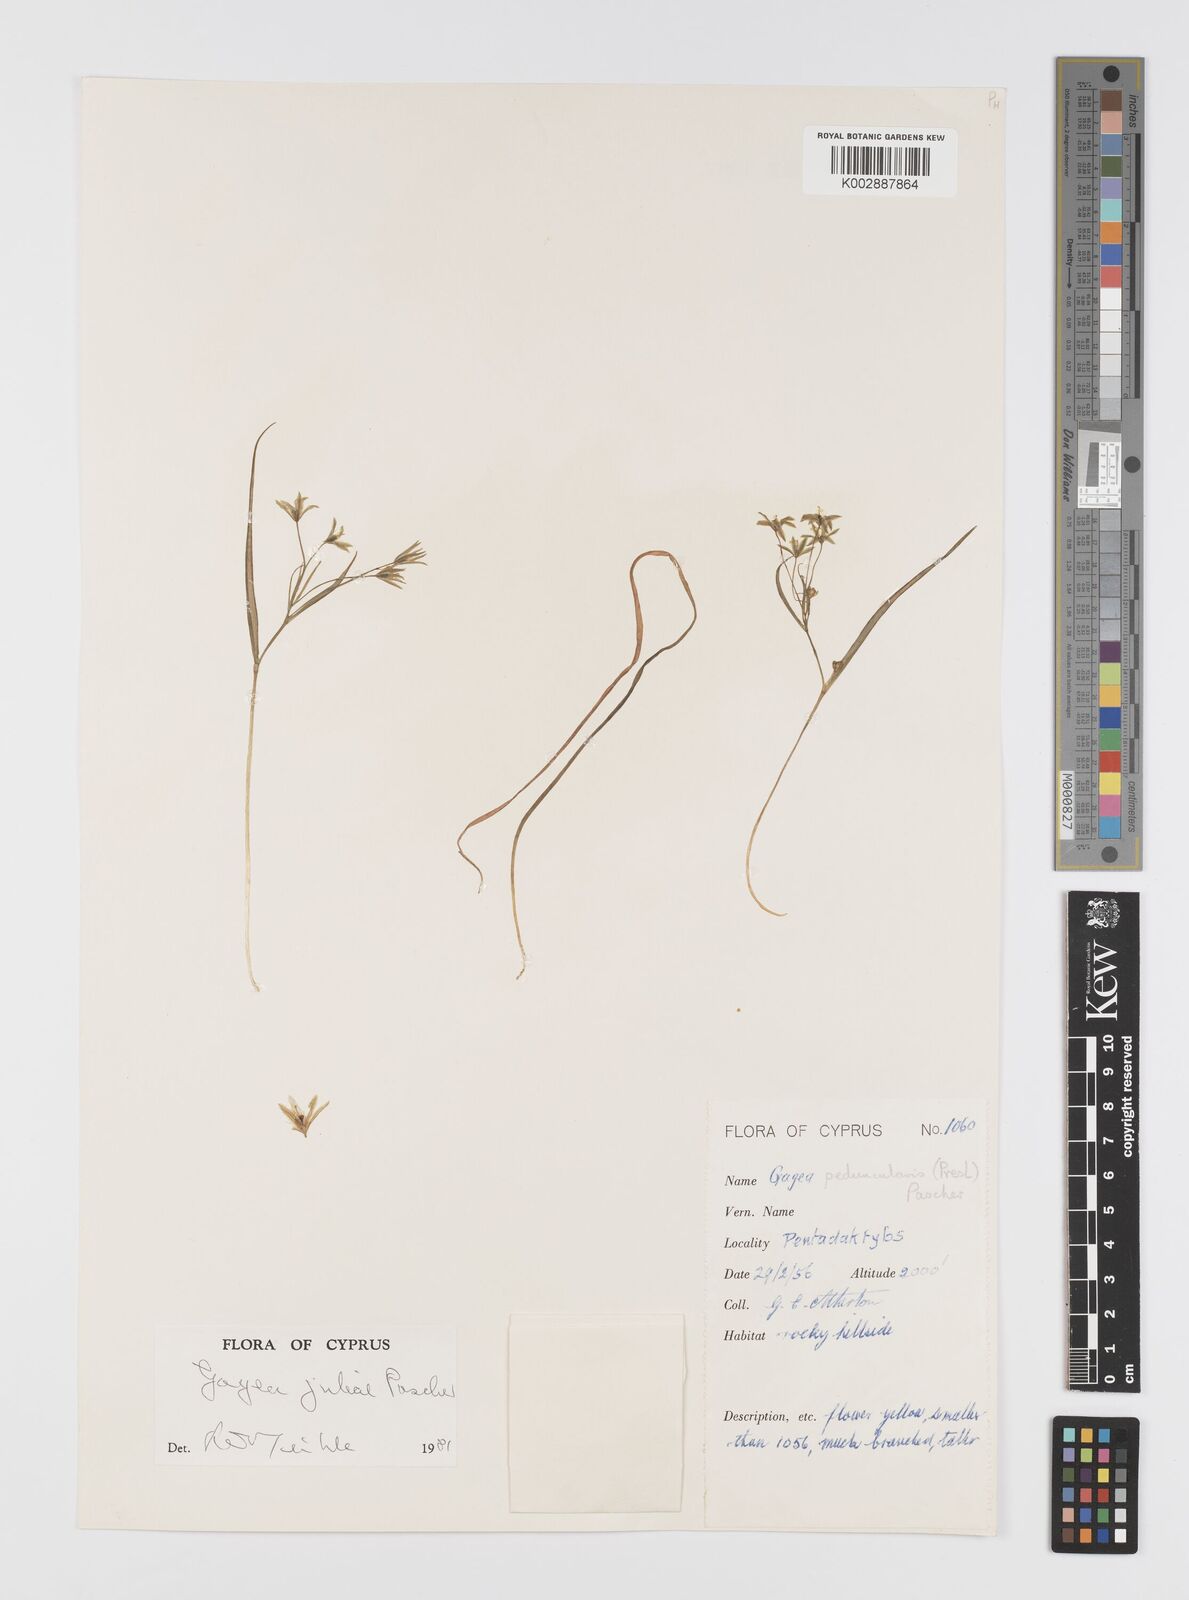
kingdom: Plantae
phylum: Tracheophyta
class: Liliopsida
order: Liliales
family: Liliaceae
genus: Gagea
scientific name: Gagea juliae
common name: Julia’s gagea
